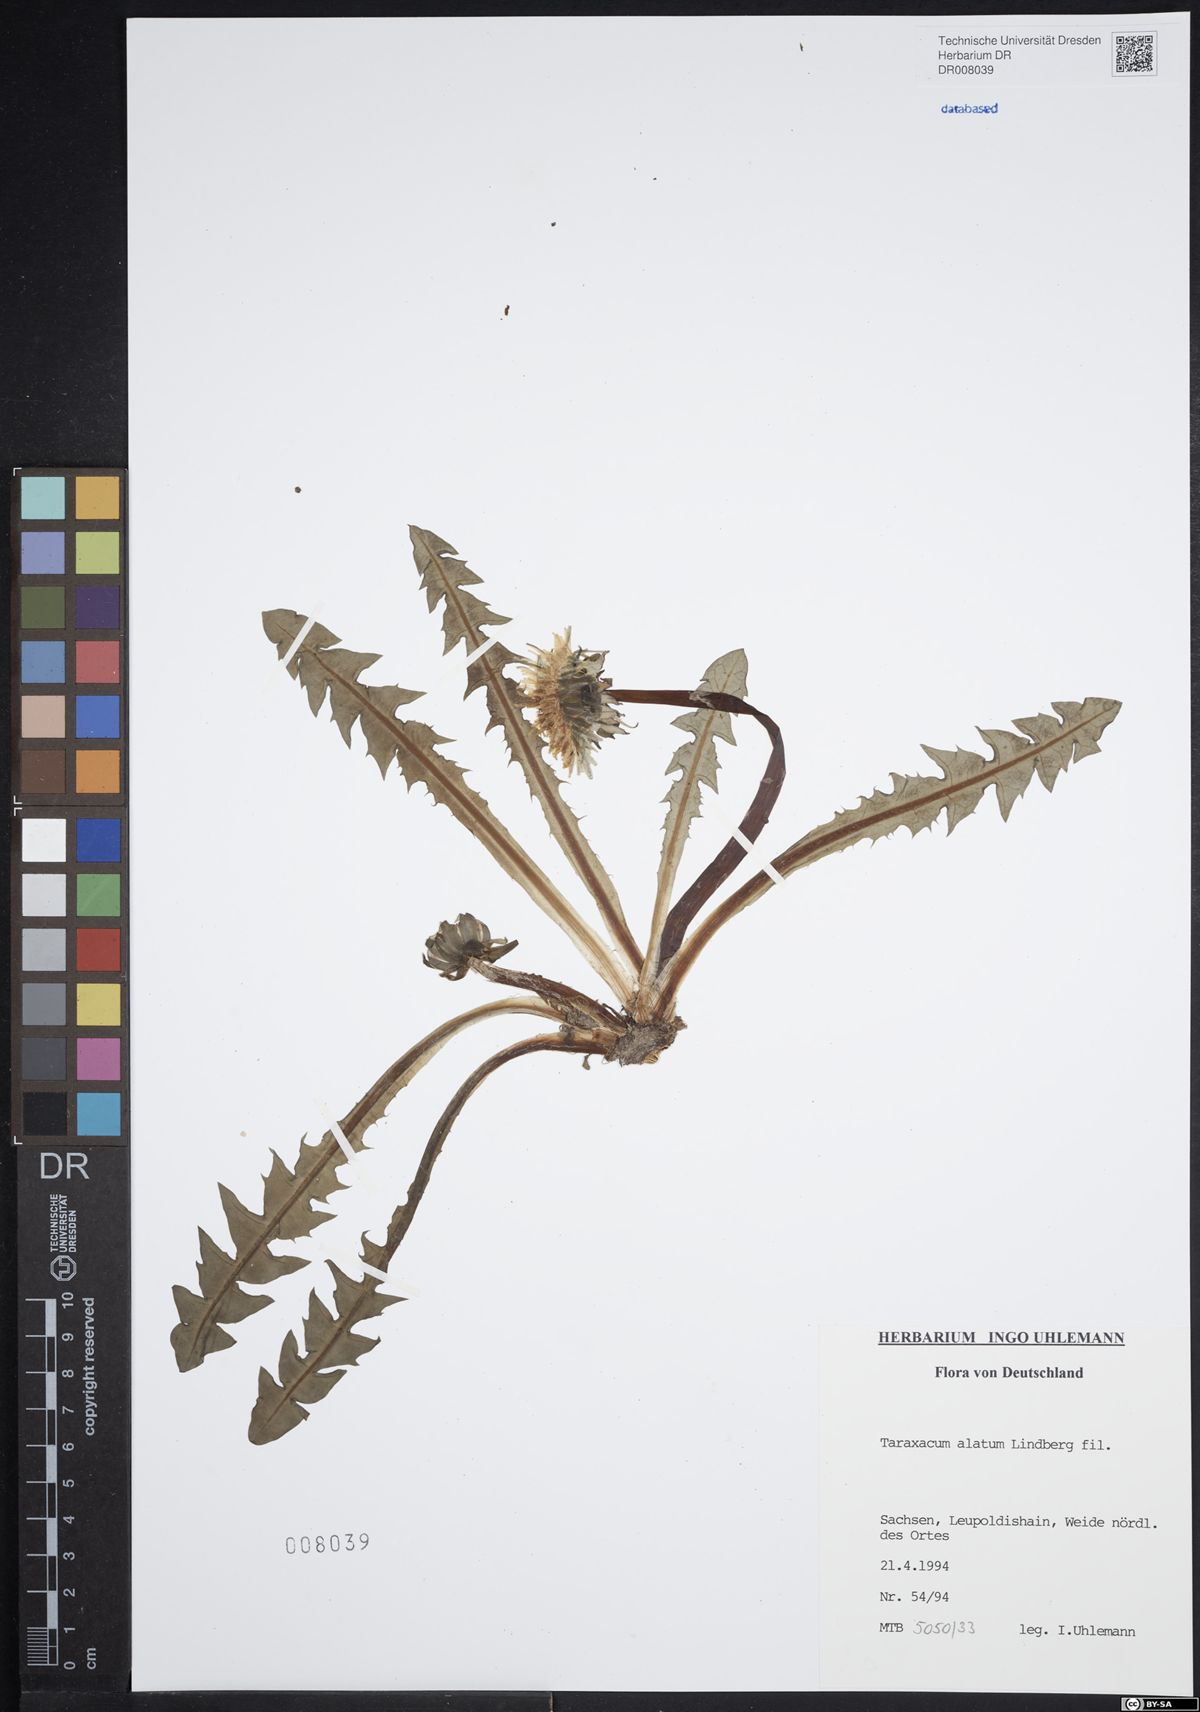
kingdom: Plantae
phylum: Tracheophyta
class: Magnoliopsida
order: Asterales
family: Asteraceae
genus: Taraxacum
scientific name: Taraxacum alatum
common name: Green dandelion
